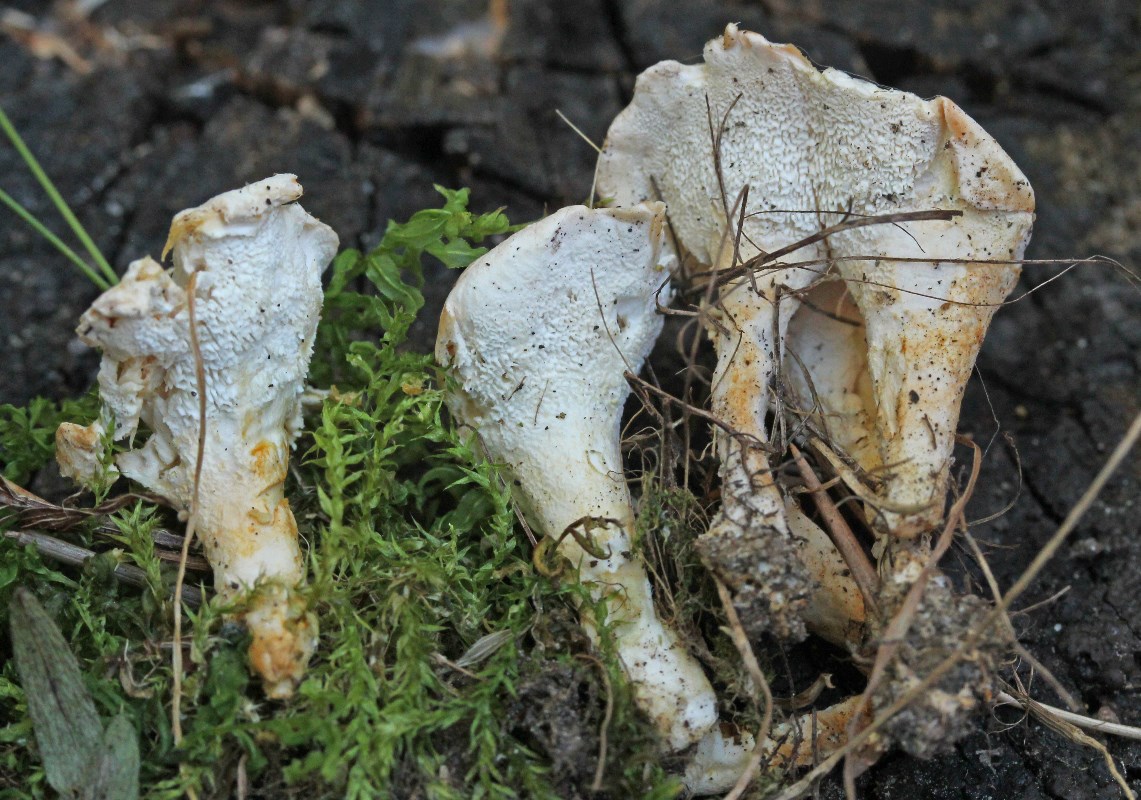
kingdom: Fungi
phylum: Basidiomycota
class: Agaricomycetes
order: Cantharellales
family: Hydnaceae
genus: Sistotrema
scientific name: Sistotrema confluens
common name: stilket kroneskorpe
